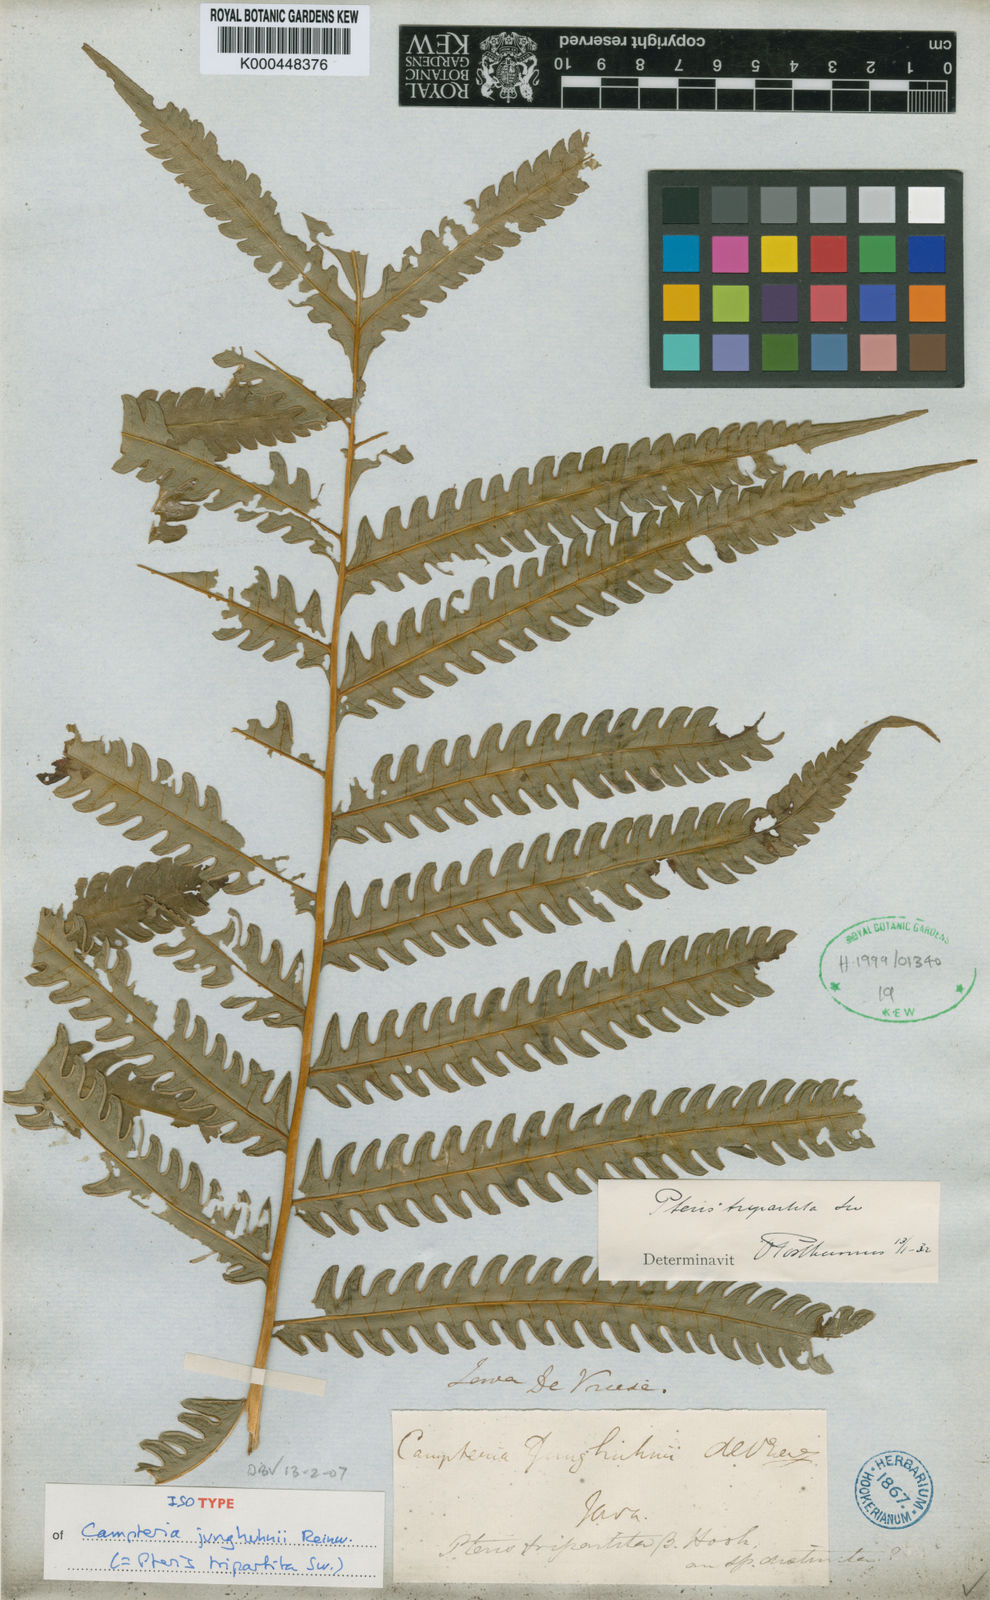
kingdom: Plantae
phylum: Tracheophyta
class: Polypodiopsida
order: Polypodiales
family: Pteridaceae
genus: Pteris
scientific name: Pteris tripartita
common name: Giant brake
